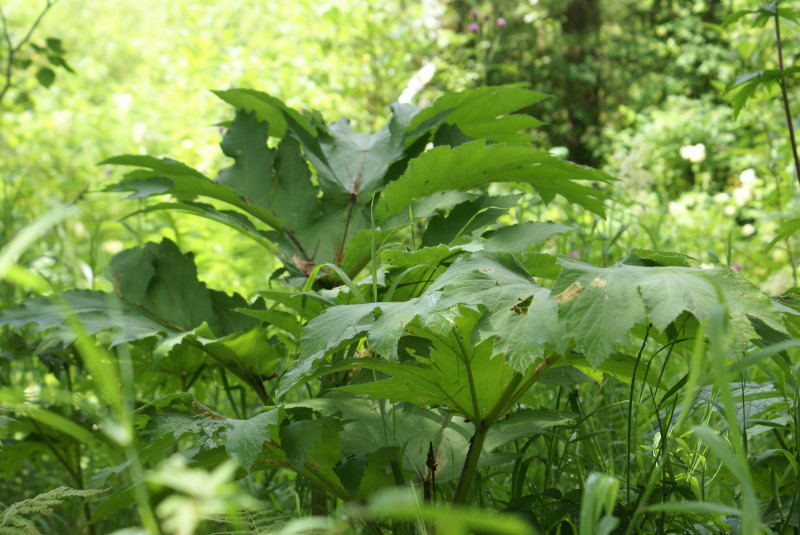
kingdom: Plantae
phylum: Tracheophyta
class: Magnoliopsida
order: Apiales
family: Apiaceae
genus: Heracleum
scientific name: Heracleum dissectum
